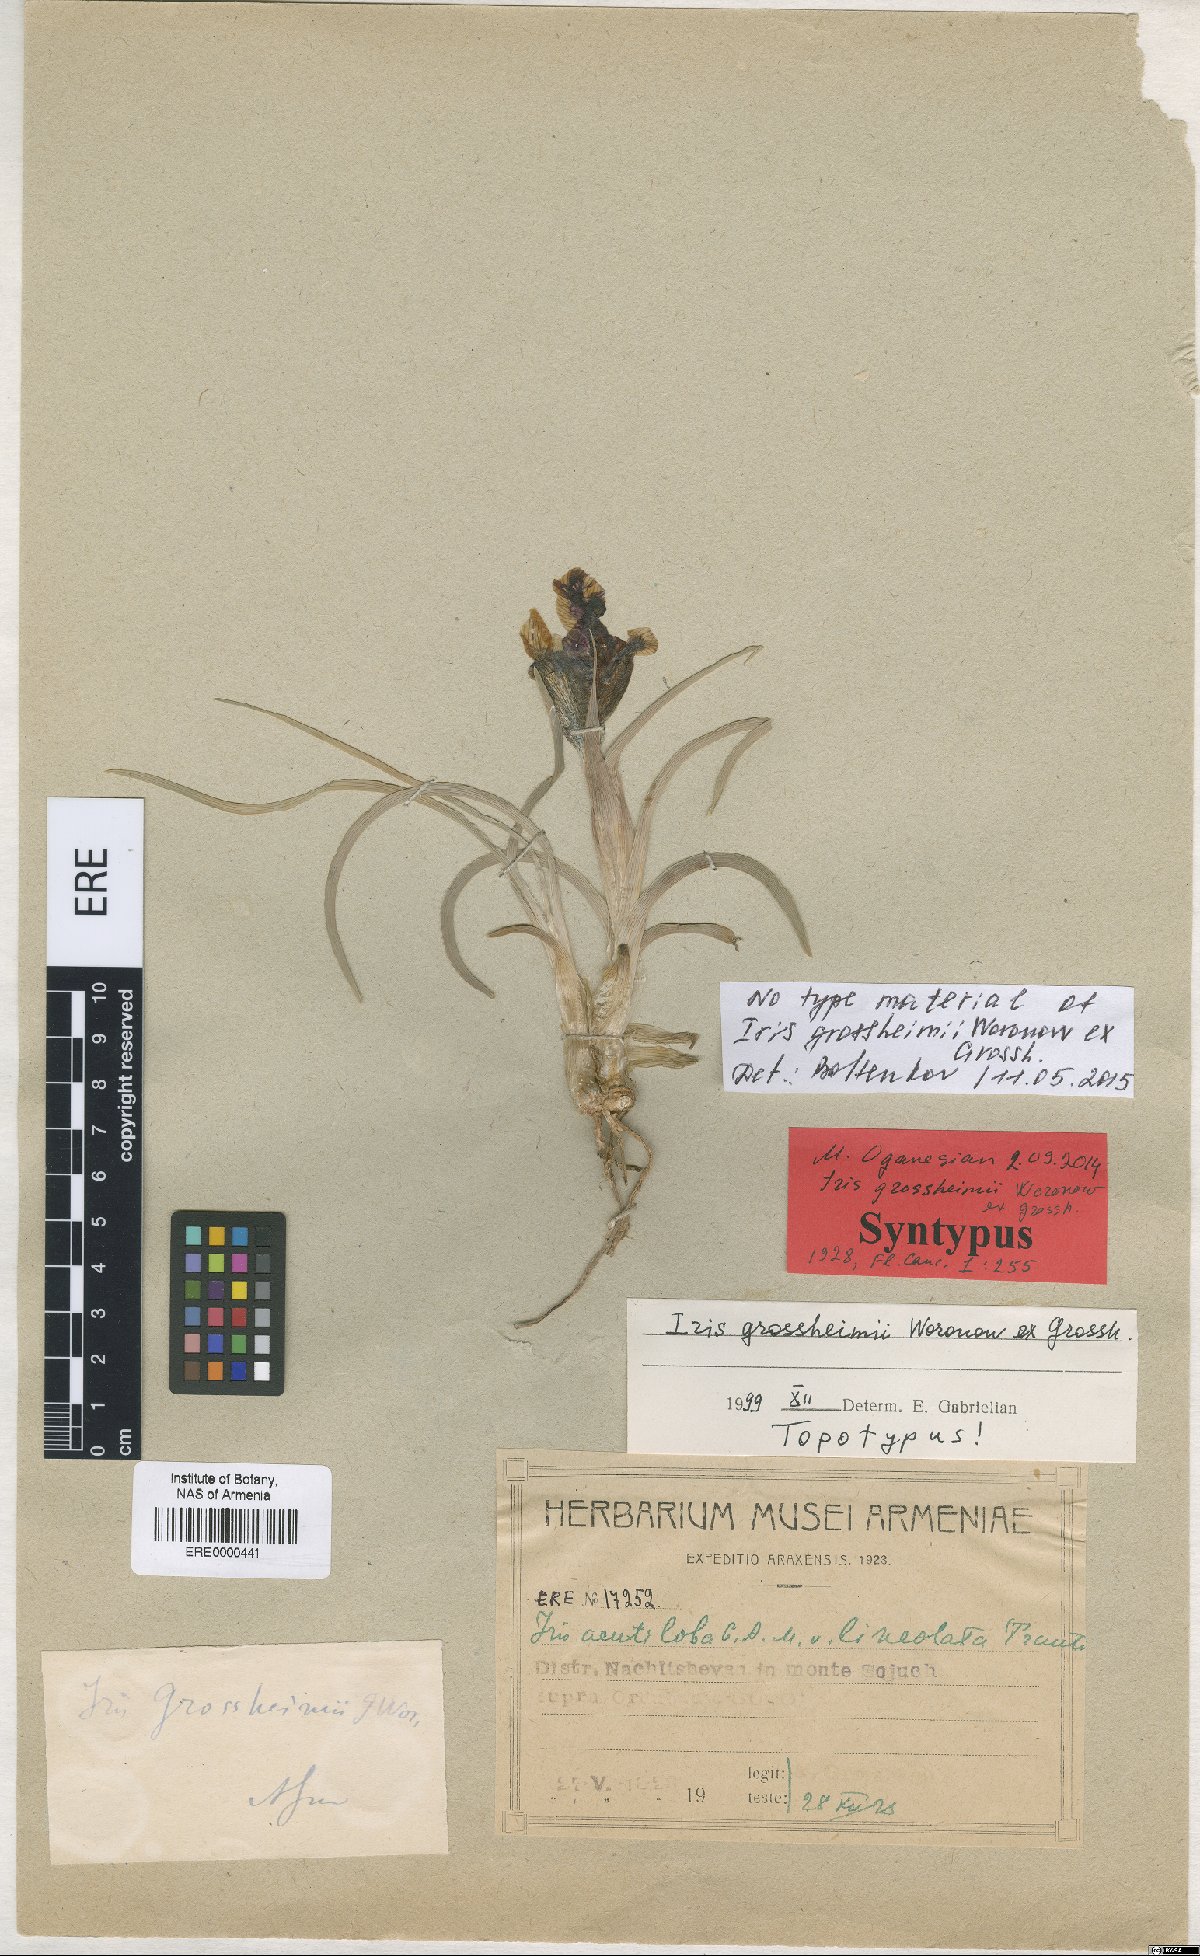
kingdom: Plantae
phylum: Tracheophyta
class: Liliopsida
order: Asparagales
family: Iridaceae
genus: Iris
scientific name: Iris grossheimii
